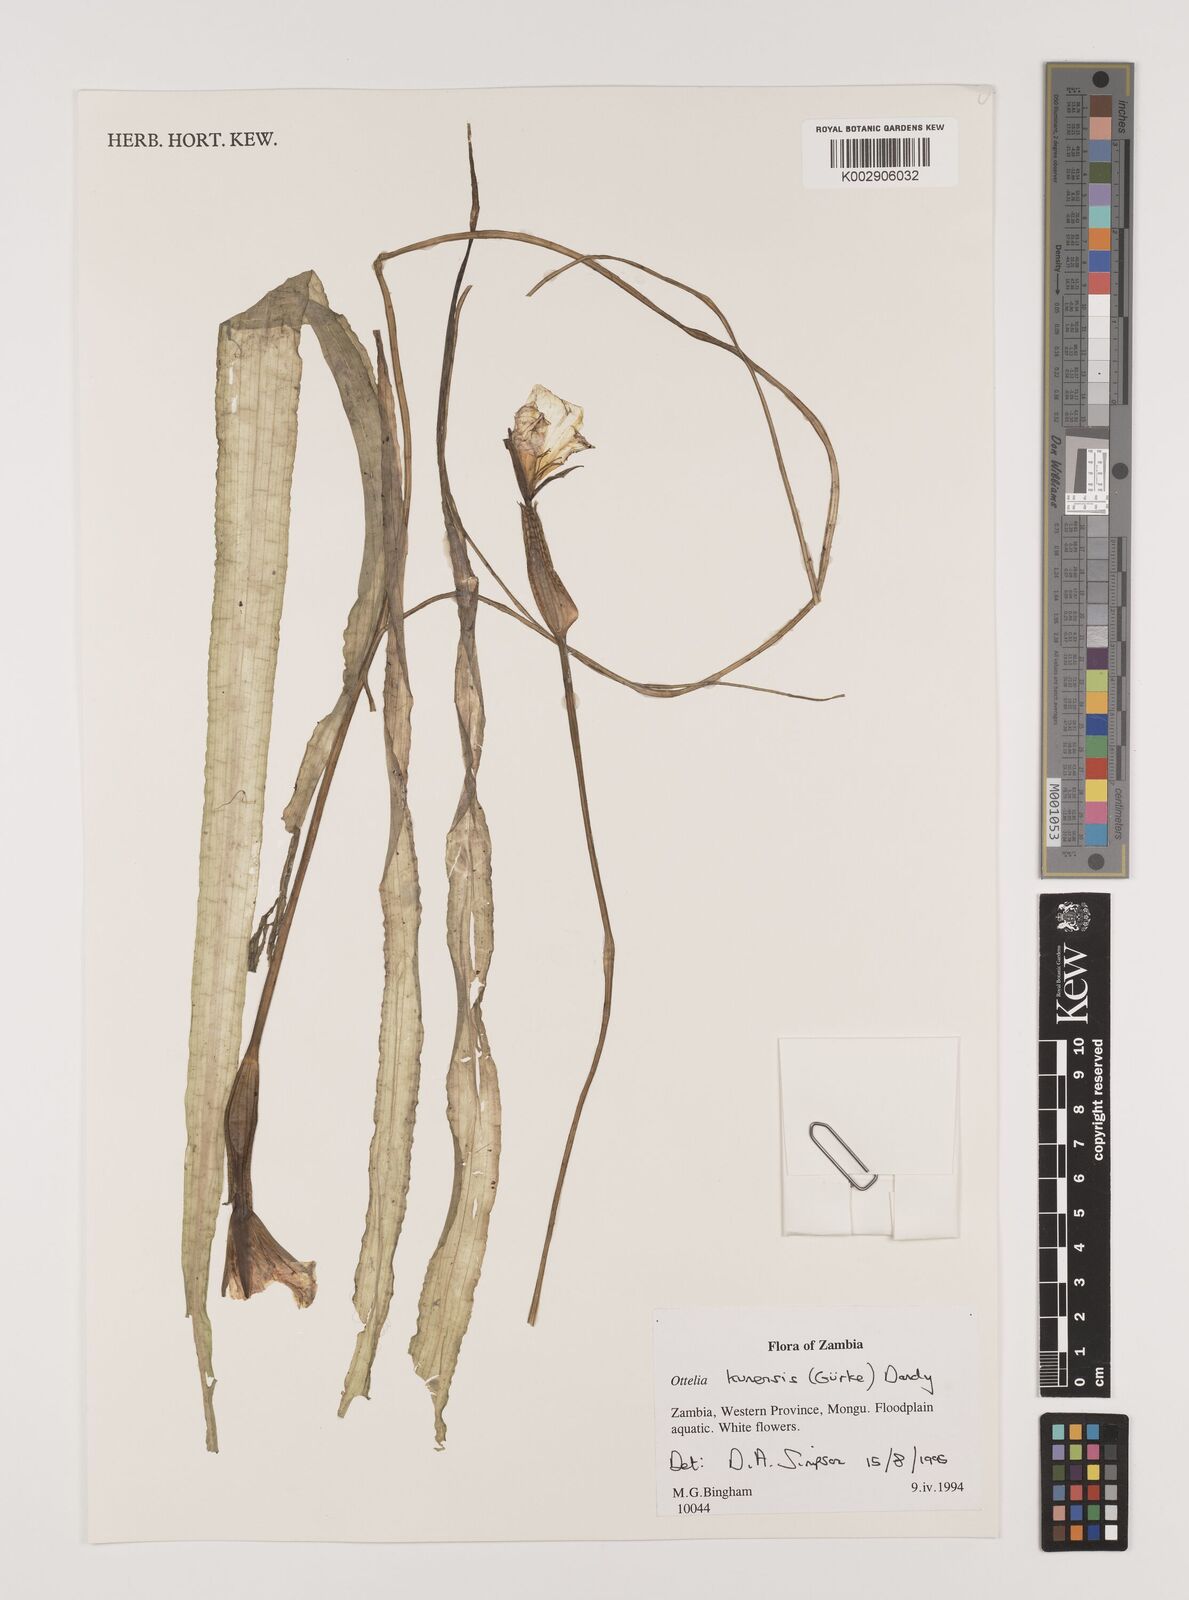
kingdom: Plantae
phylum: Tracheophyta
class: Liliopsida
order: Alismatales
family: Hydrocharitaceae
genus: Ottelia
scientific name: Ottelia kunenensis
